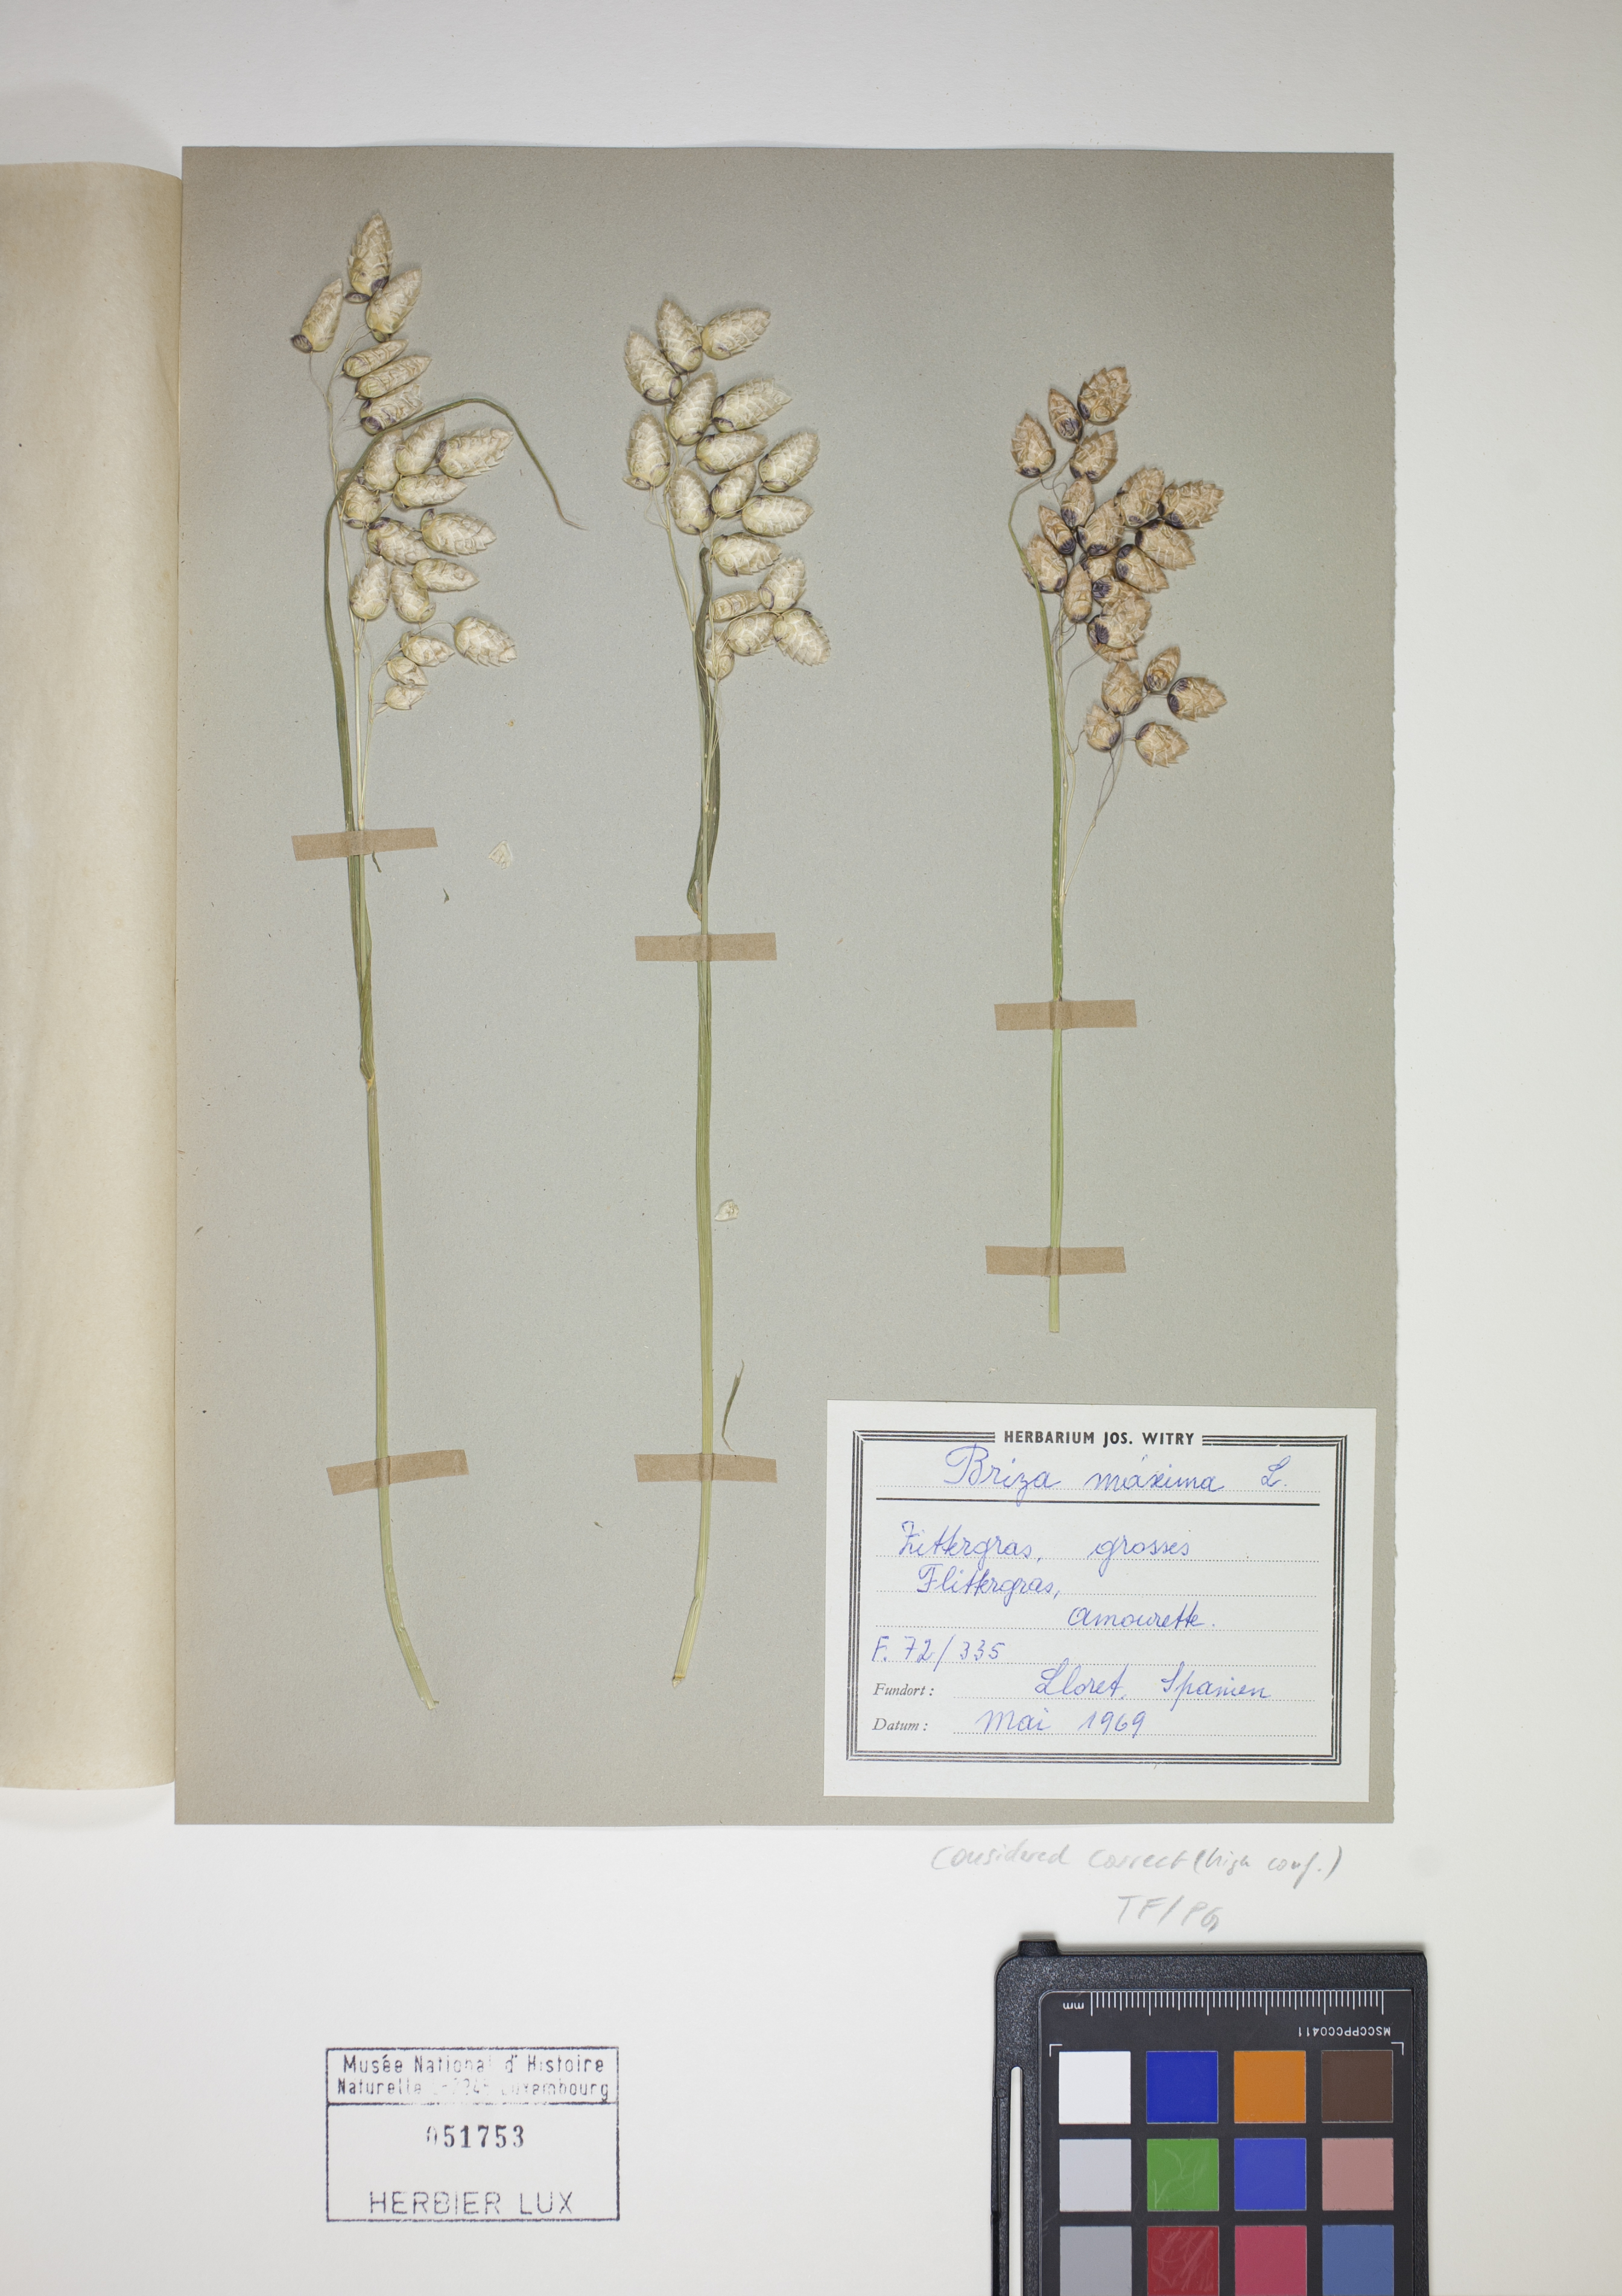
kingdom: Plantae
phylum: Tracheophyta
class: Liliopsida
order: Poales
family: Poaceae
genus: Briza
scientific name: Briza maxima
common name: Big quakinggrass
